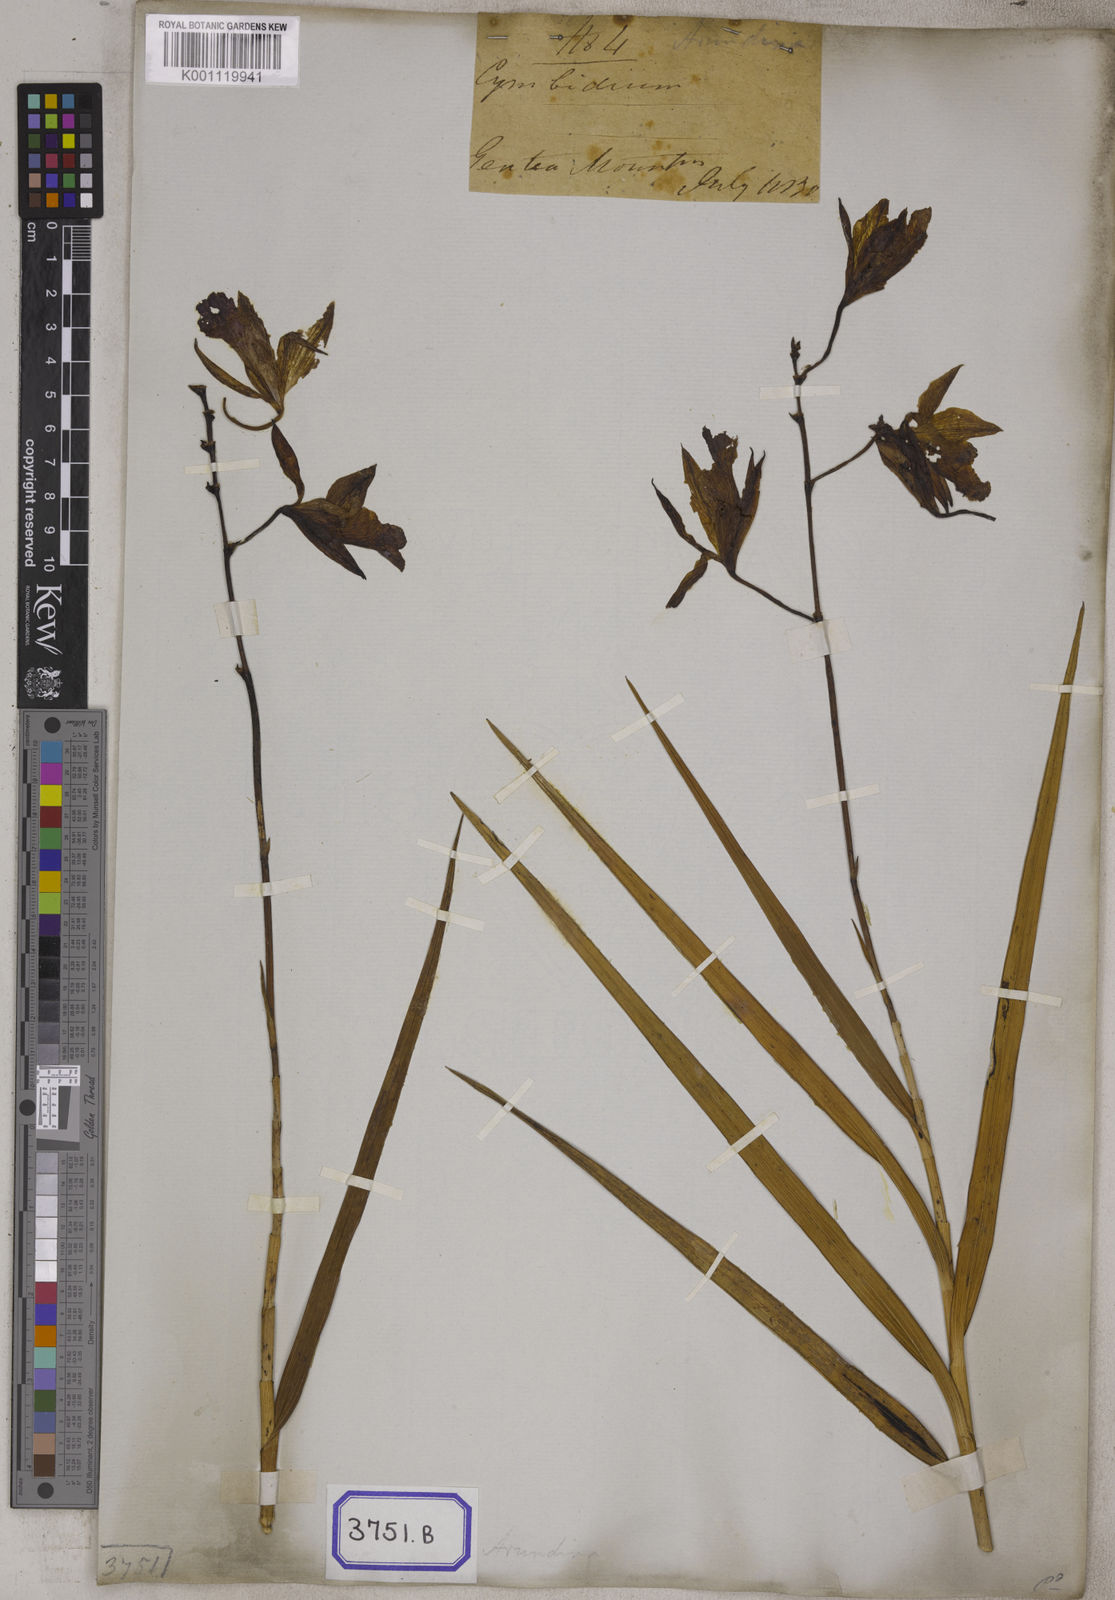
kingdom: Plantae
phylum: Tracheophyta
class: Liliopsida
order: Asparagales
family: Orchidaceae
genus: Arundina
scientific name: Arundina graminifolia
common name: Bamboo orchid
